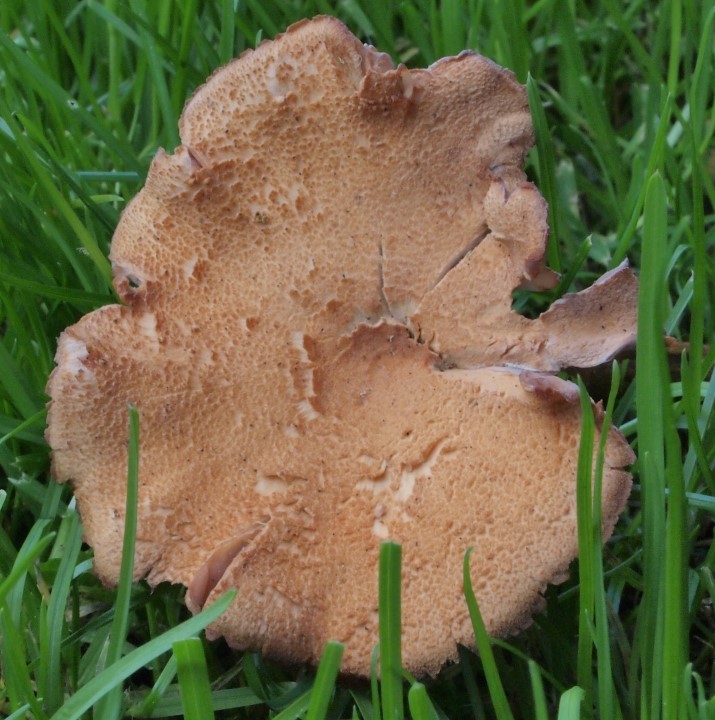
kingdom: Fungi
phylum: Basidiomycota
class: Agaricomycetes
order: Agaricales
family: Hydnangiaceae
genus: Laccaria
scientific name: Laccaria bicolor
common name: tvefarvet ametysthat
